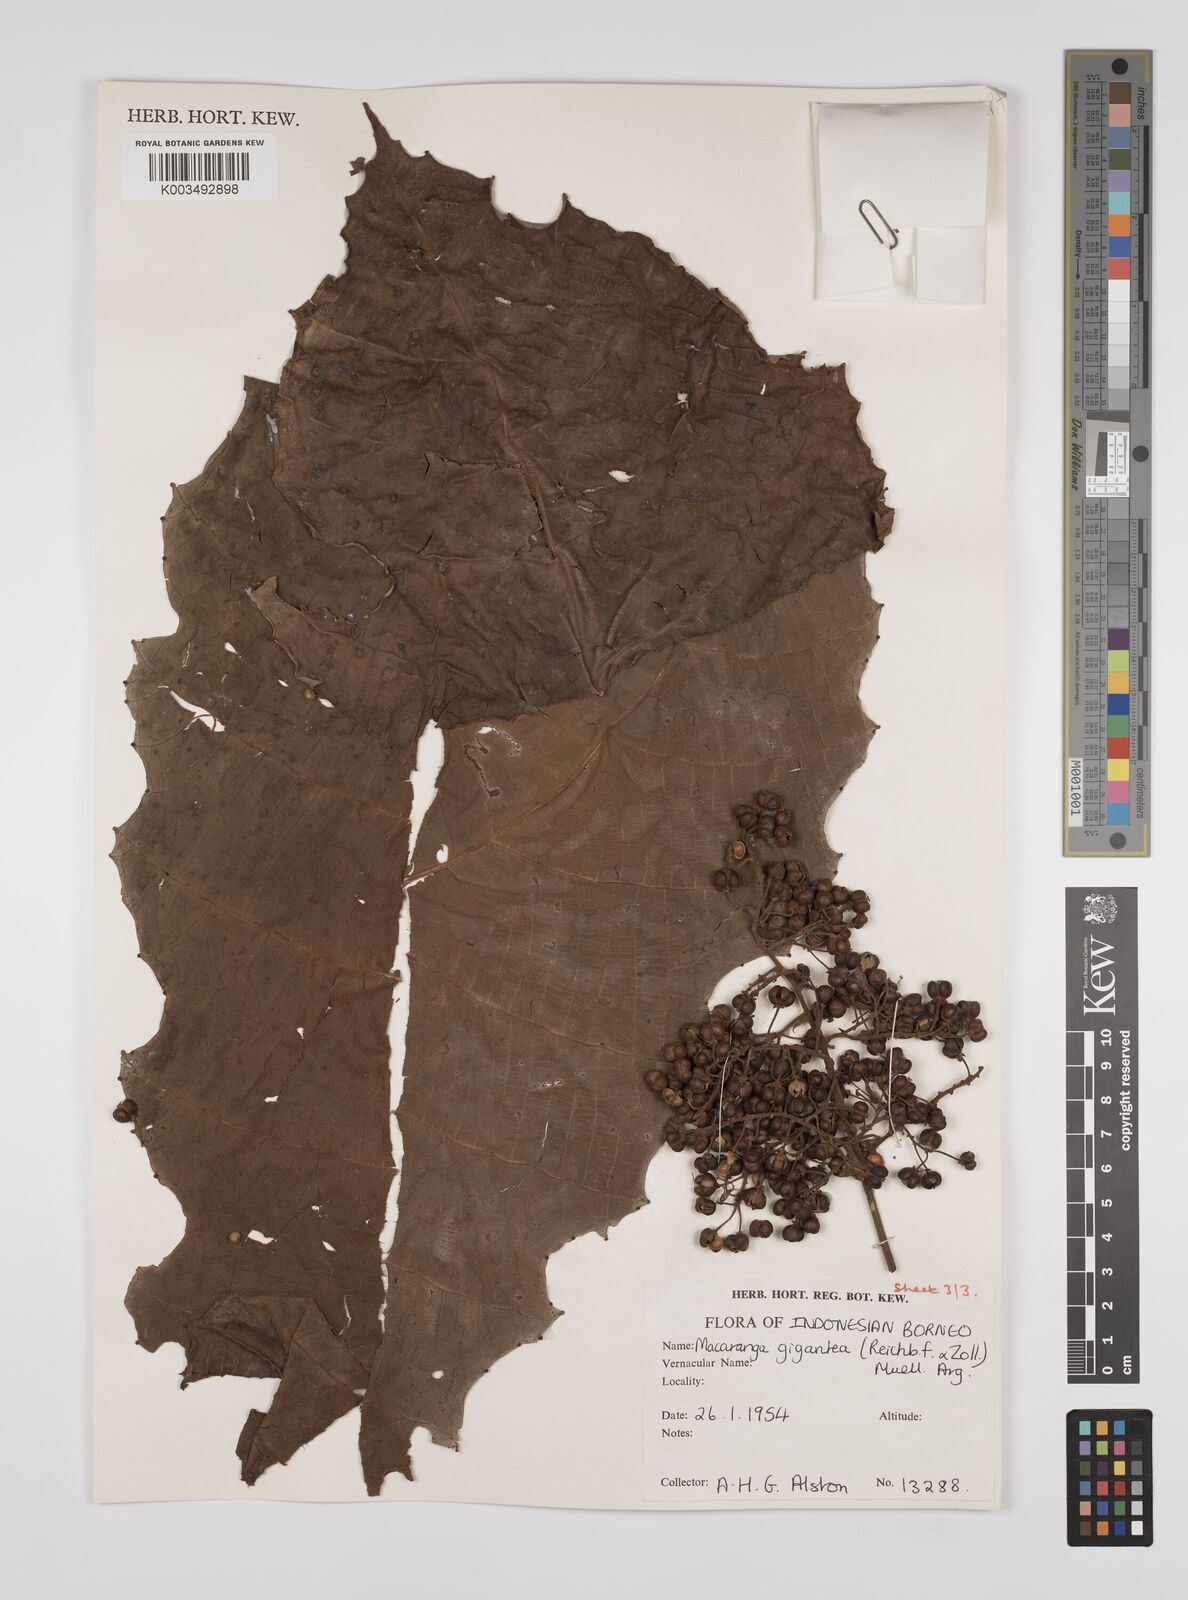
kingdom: Plantae
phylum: Tracheophyta
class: Magnoliopsida
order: Malpighiales
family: Euphorbiaceae
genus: Macaranga
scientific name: Macaranga gigantea
